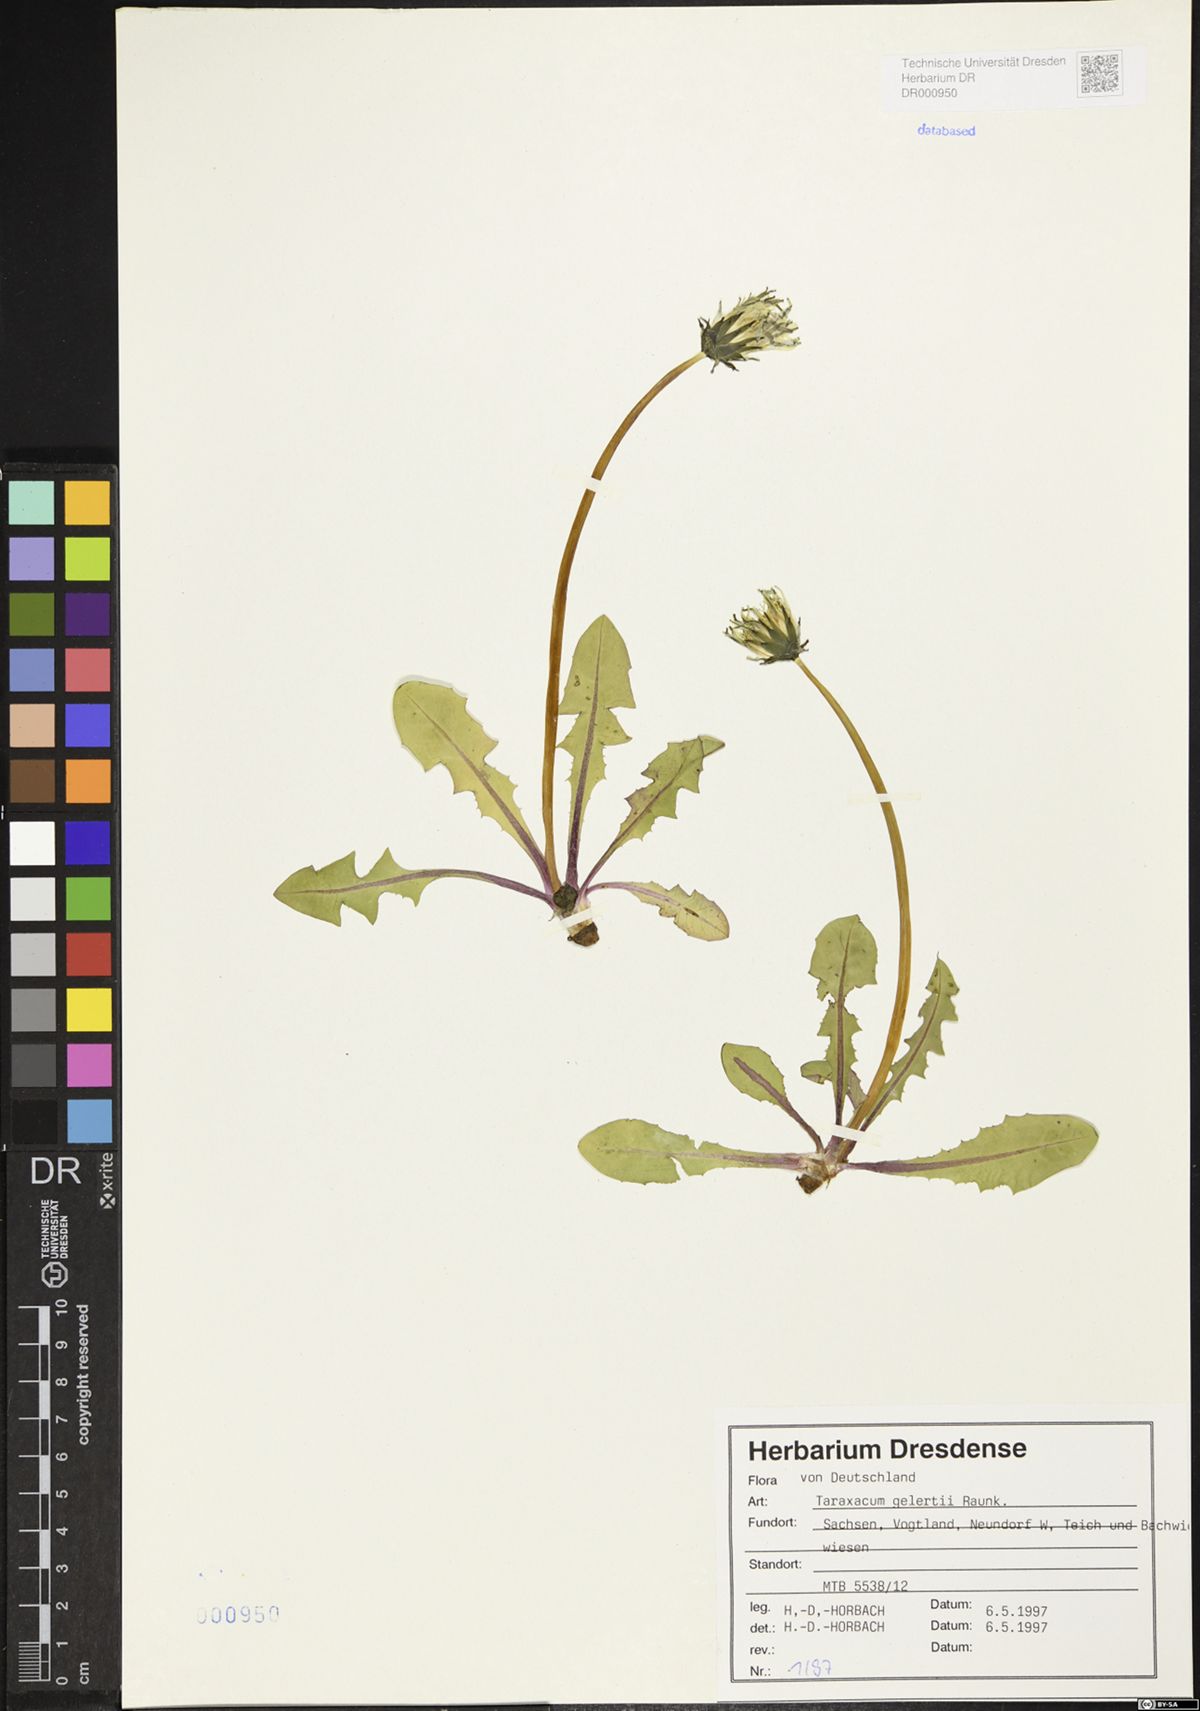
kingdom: Plantae
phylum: Tracheophyta
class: Magnoliopsida
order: Asterales
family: Asteraceae
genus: Taraxacum
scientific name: Taraxacum gelertii
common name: Gelert's dandelion
